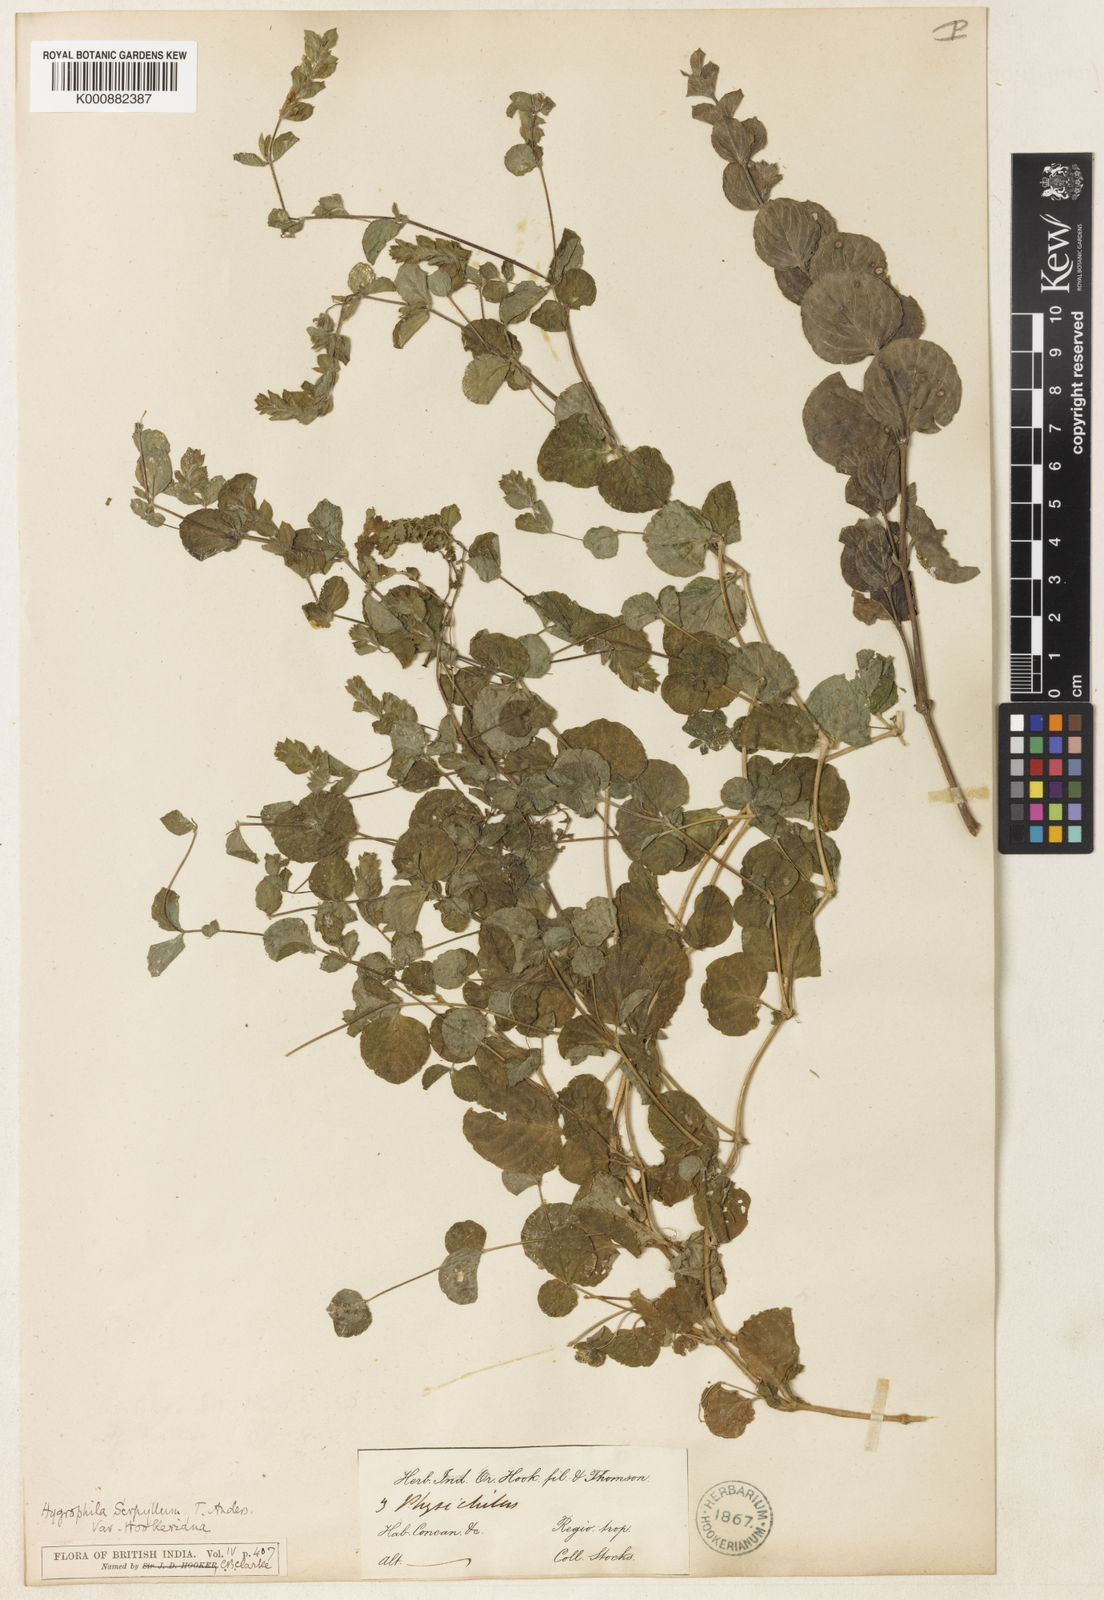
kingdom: Plantae
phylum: Tracheophyta
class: Magnoliopsida
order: Lamiales
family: Acanthaceae
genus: Hygrophila
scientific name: Hygrophila serpyllum
